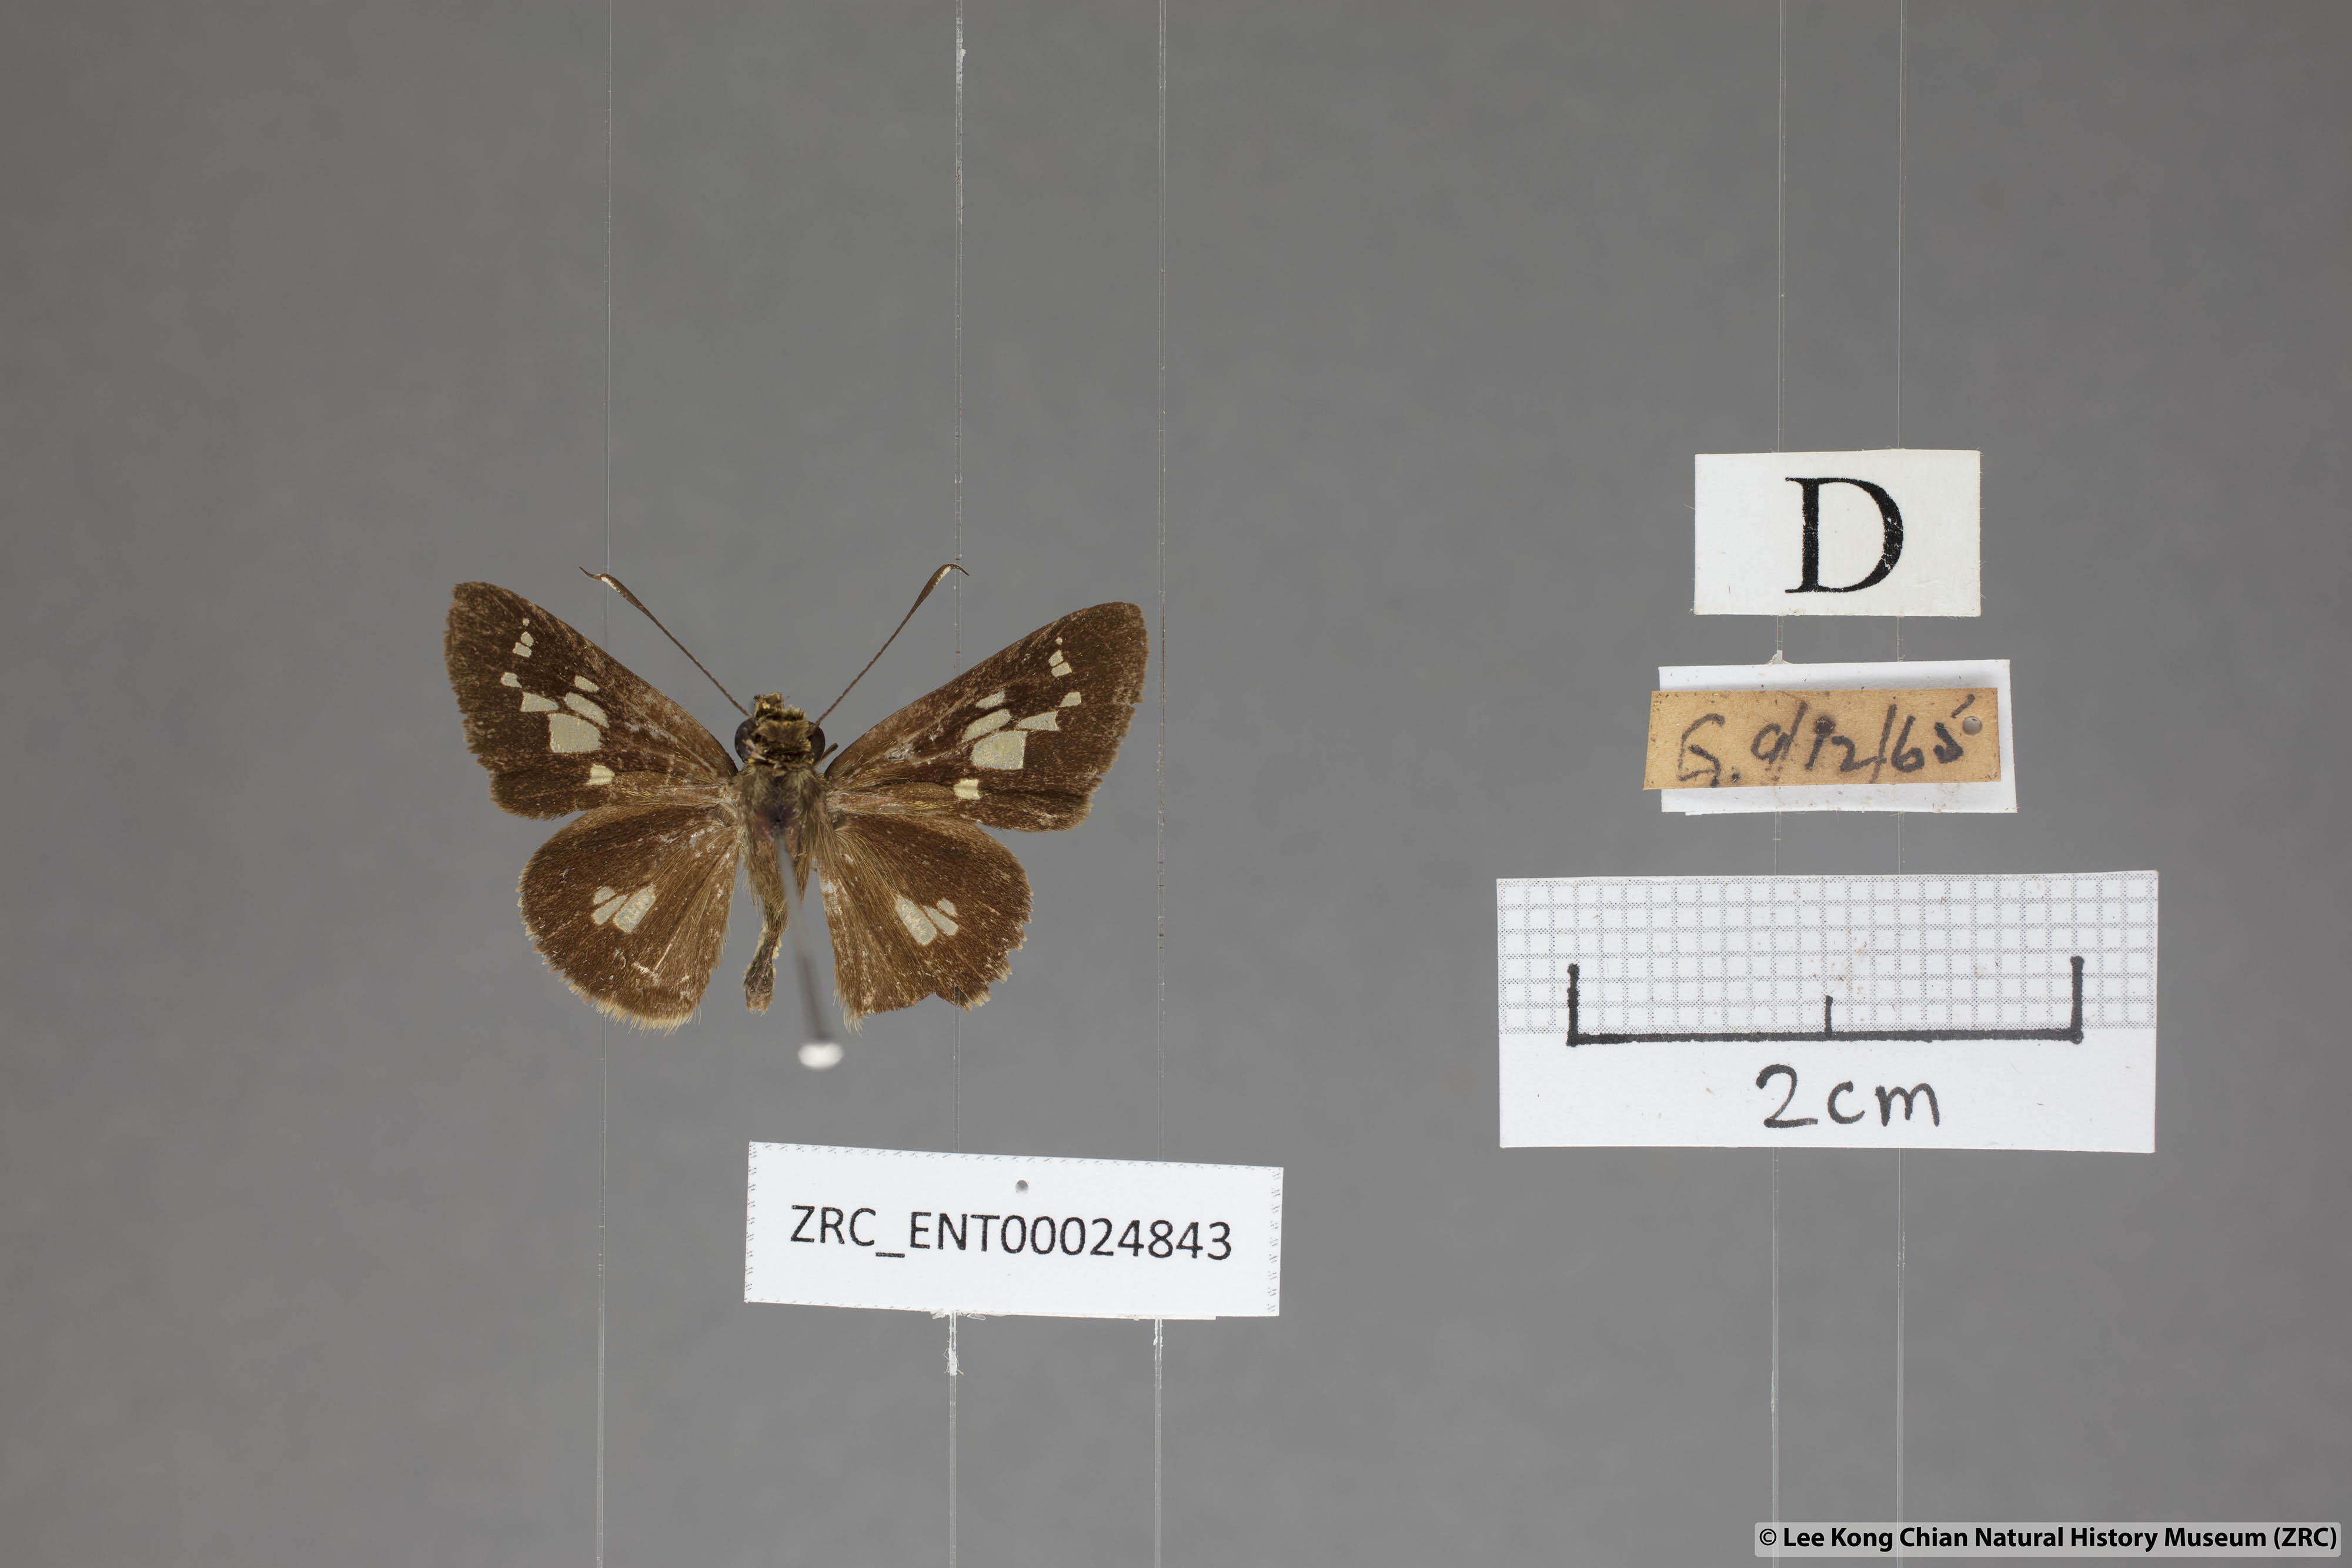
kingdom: Animalia
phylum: Arthropoda
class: Insecta
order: Lepidoptera
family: Hesperiidae
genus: Isma
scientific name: Isma bononia
